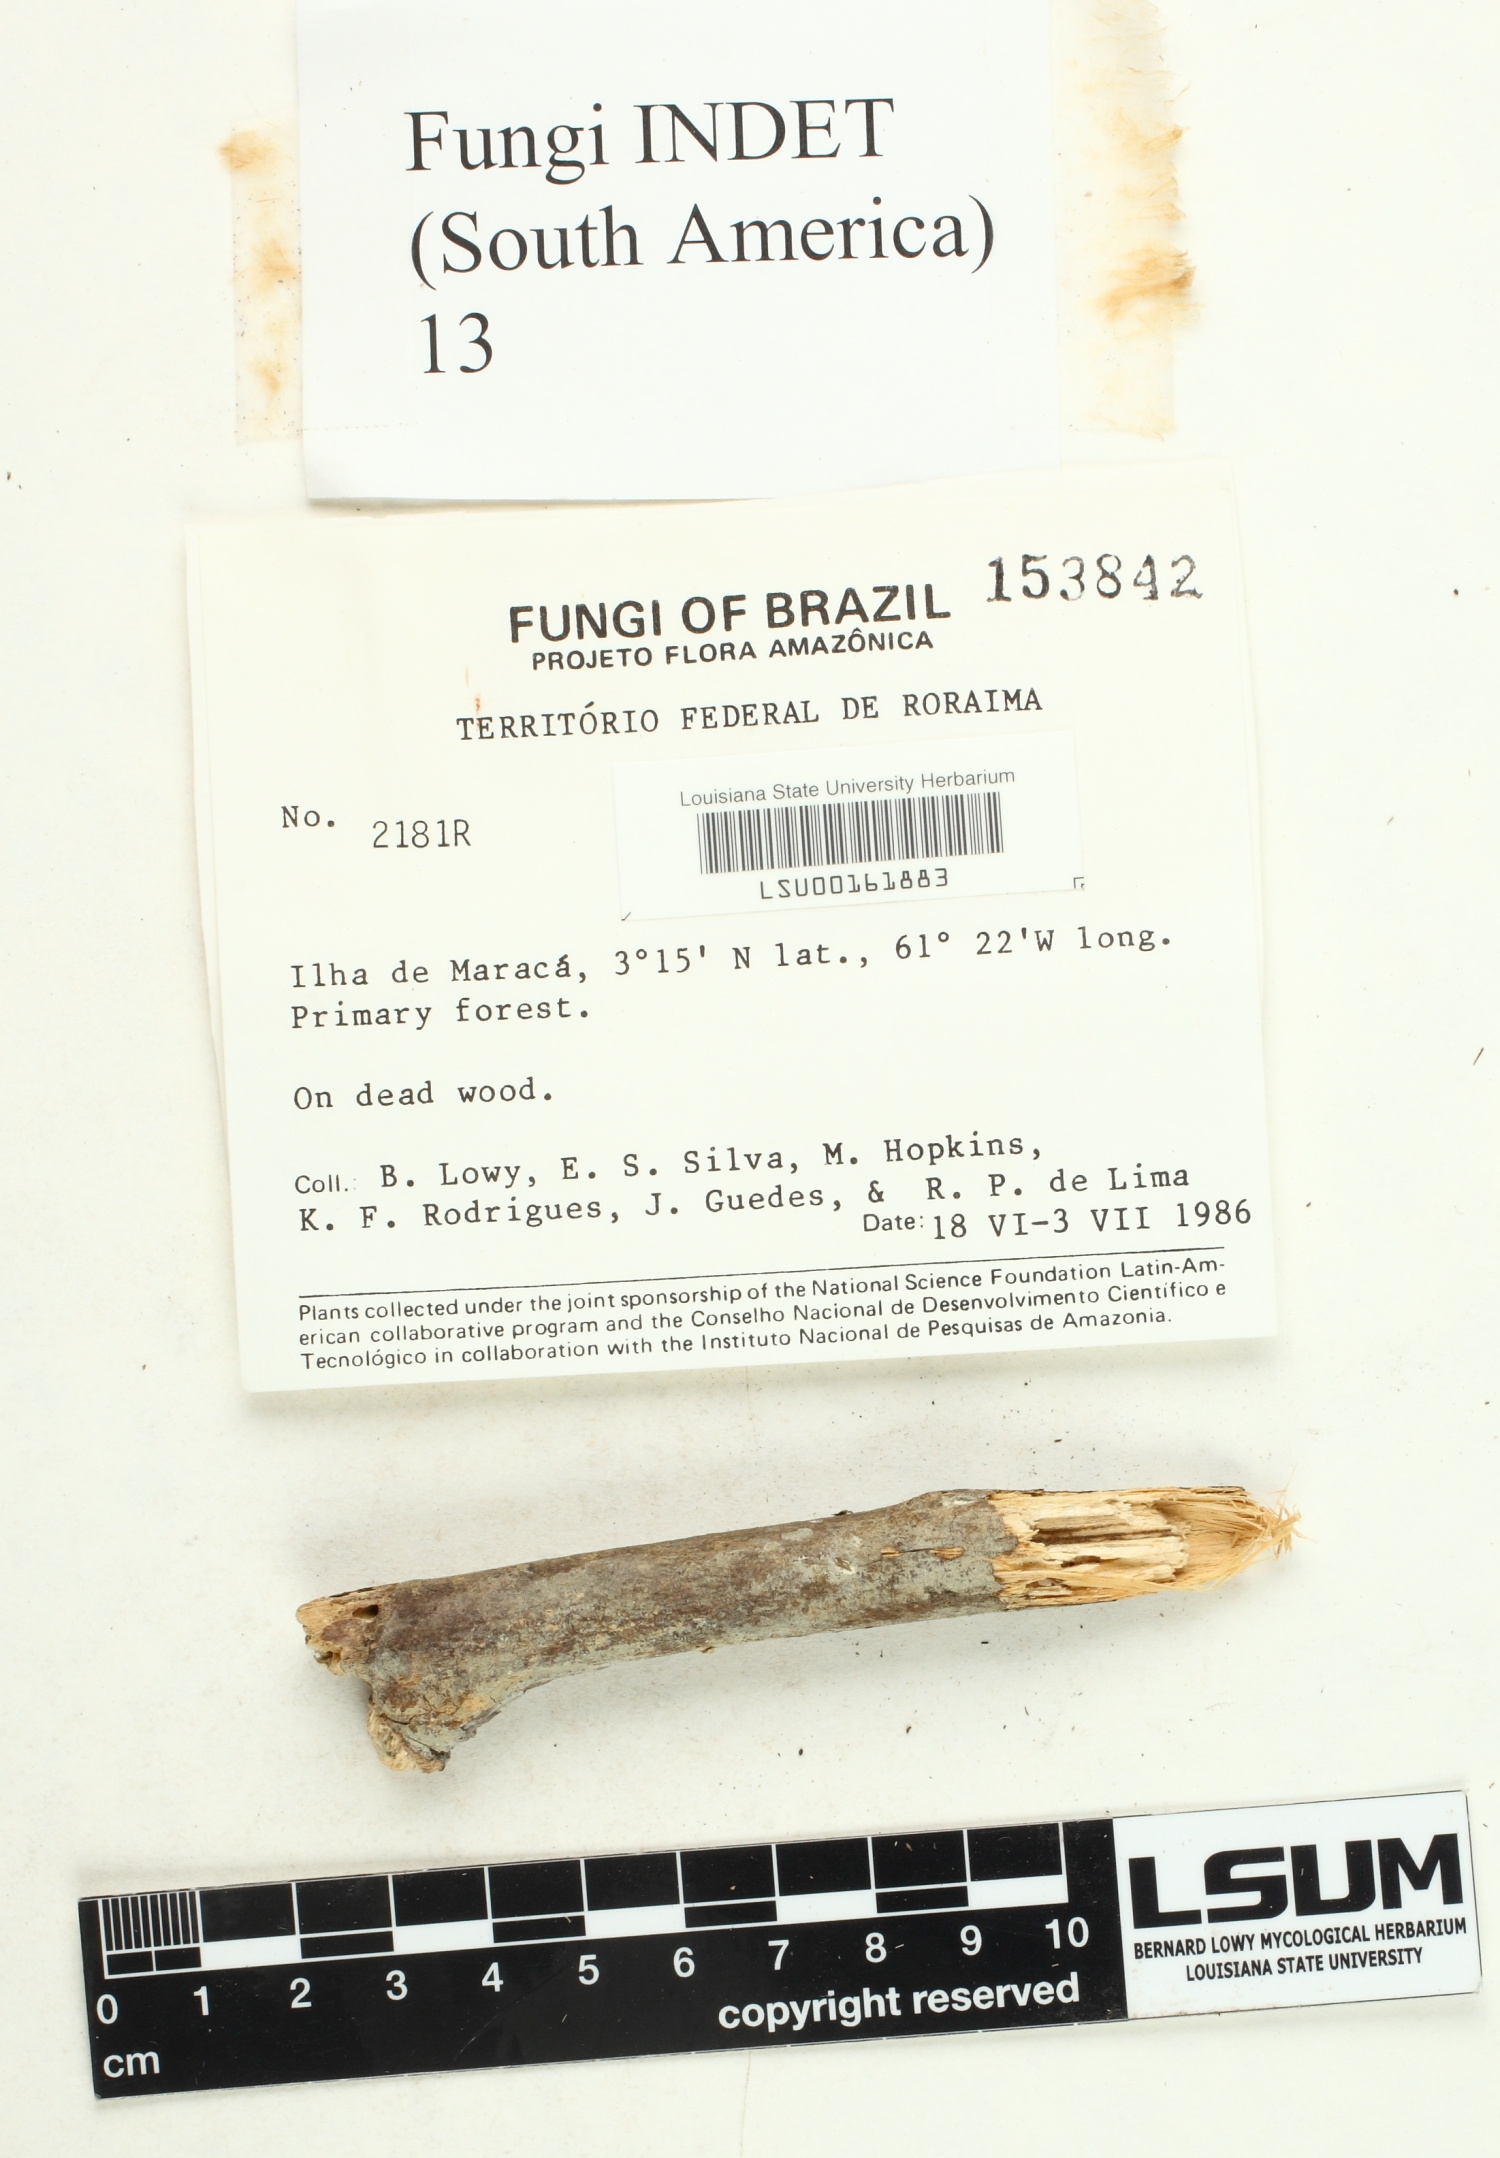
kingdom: Fungi
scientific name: Fungi
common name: Fungi
